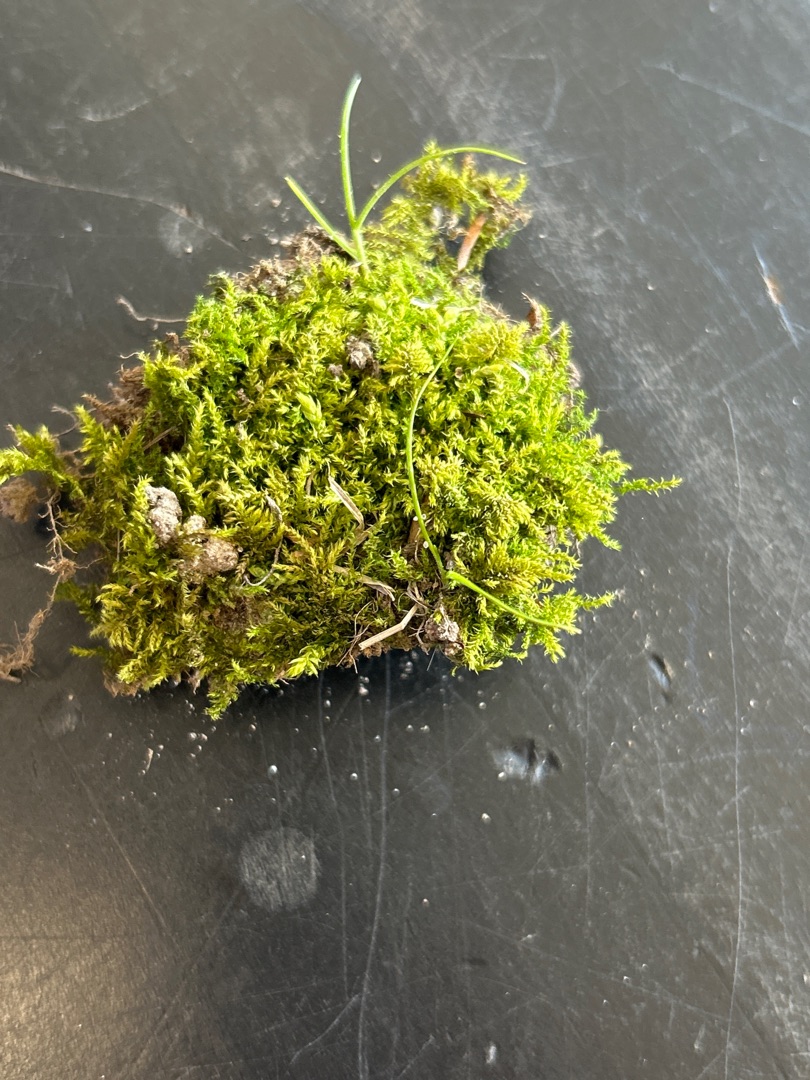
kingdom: Plantae
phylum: Bryophyta
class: Bryopsida
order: Hypnales
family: Brachytheciaceae
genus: Kindbergia
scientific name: Kindbergia praelonga
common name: Forskelligbladet vortetand
